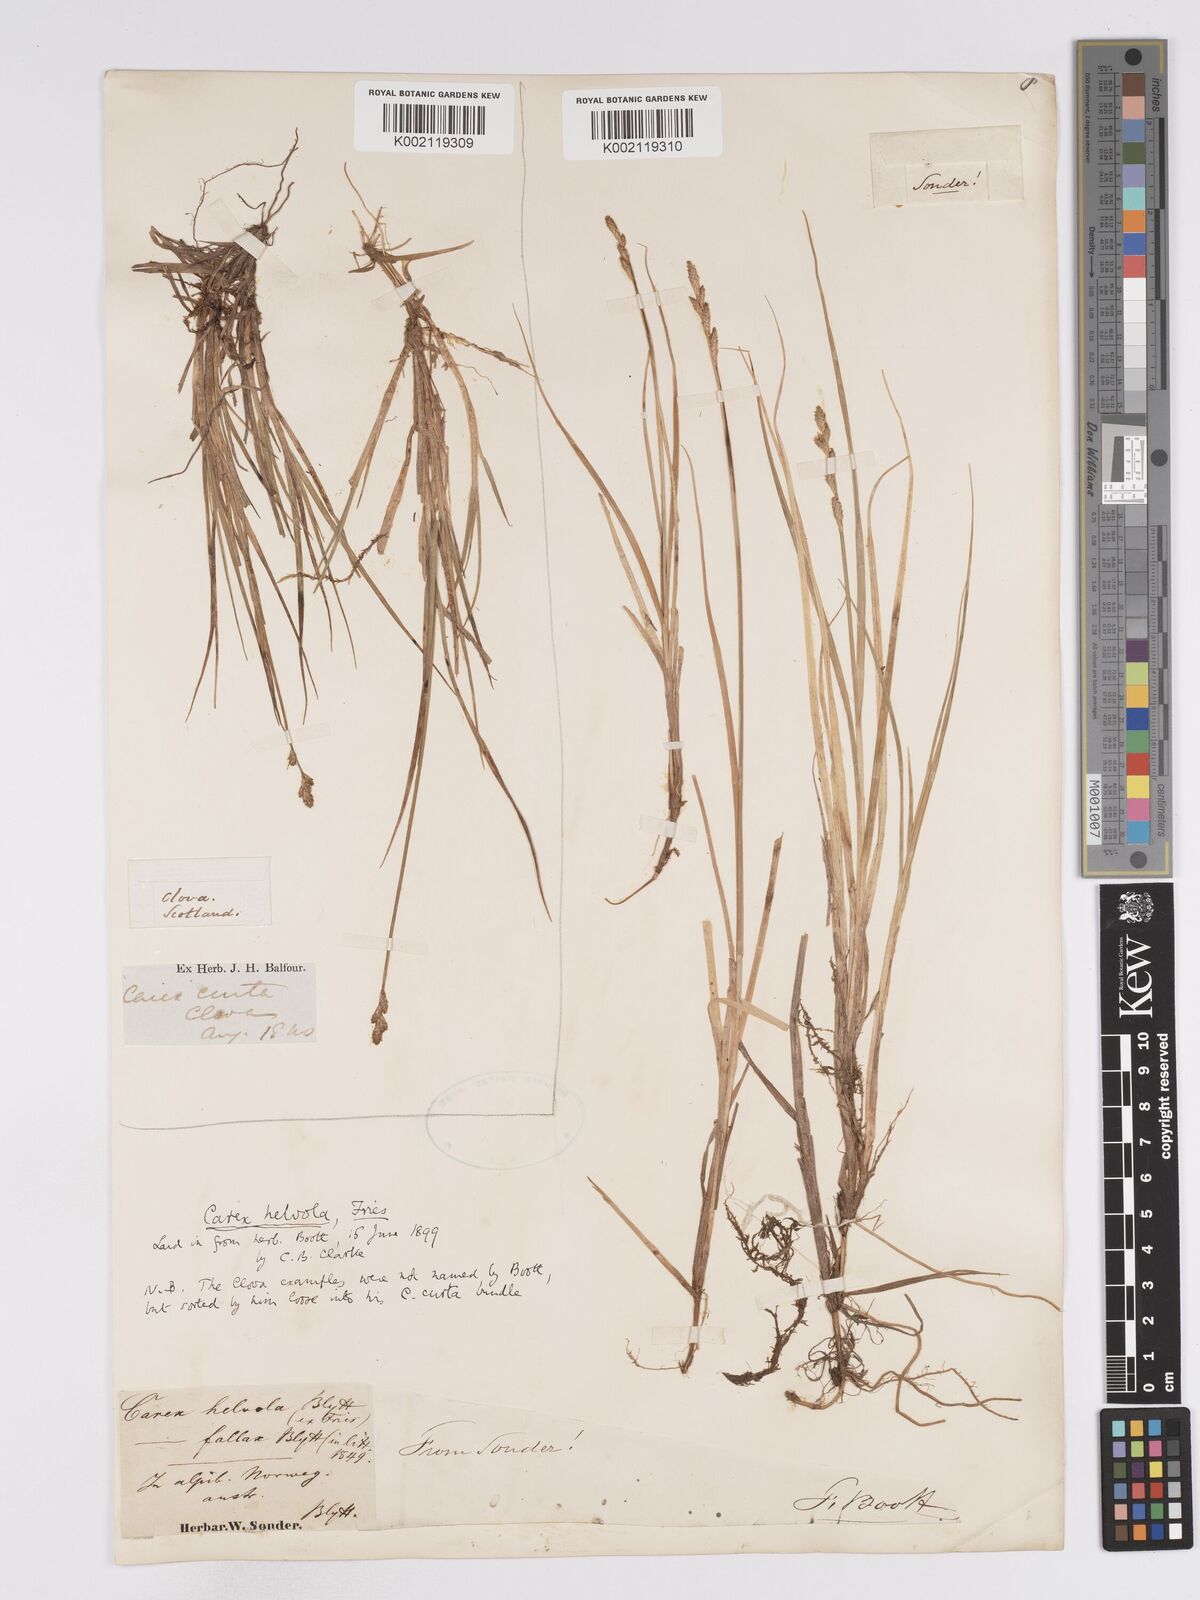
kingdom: Plantae
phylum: Tracheophyta
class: Liliopsida
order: Poales
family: Cyperaceae
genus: Carex
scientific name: Carex
